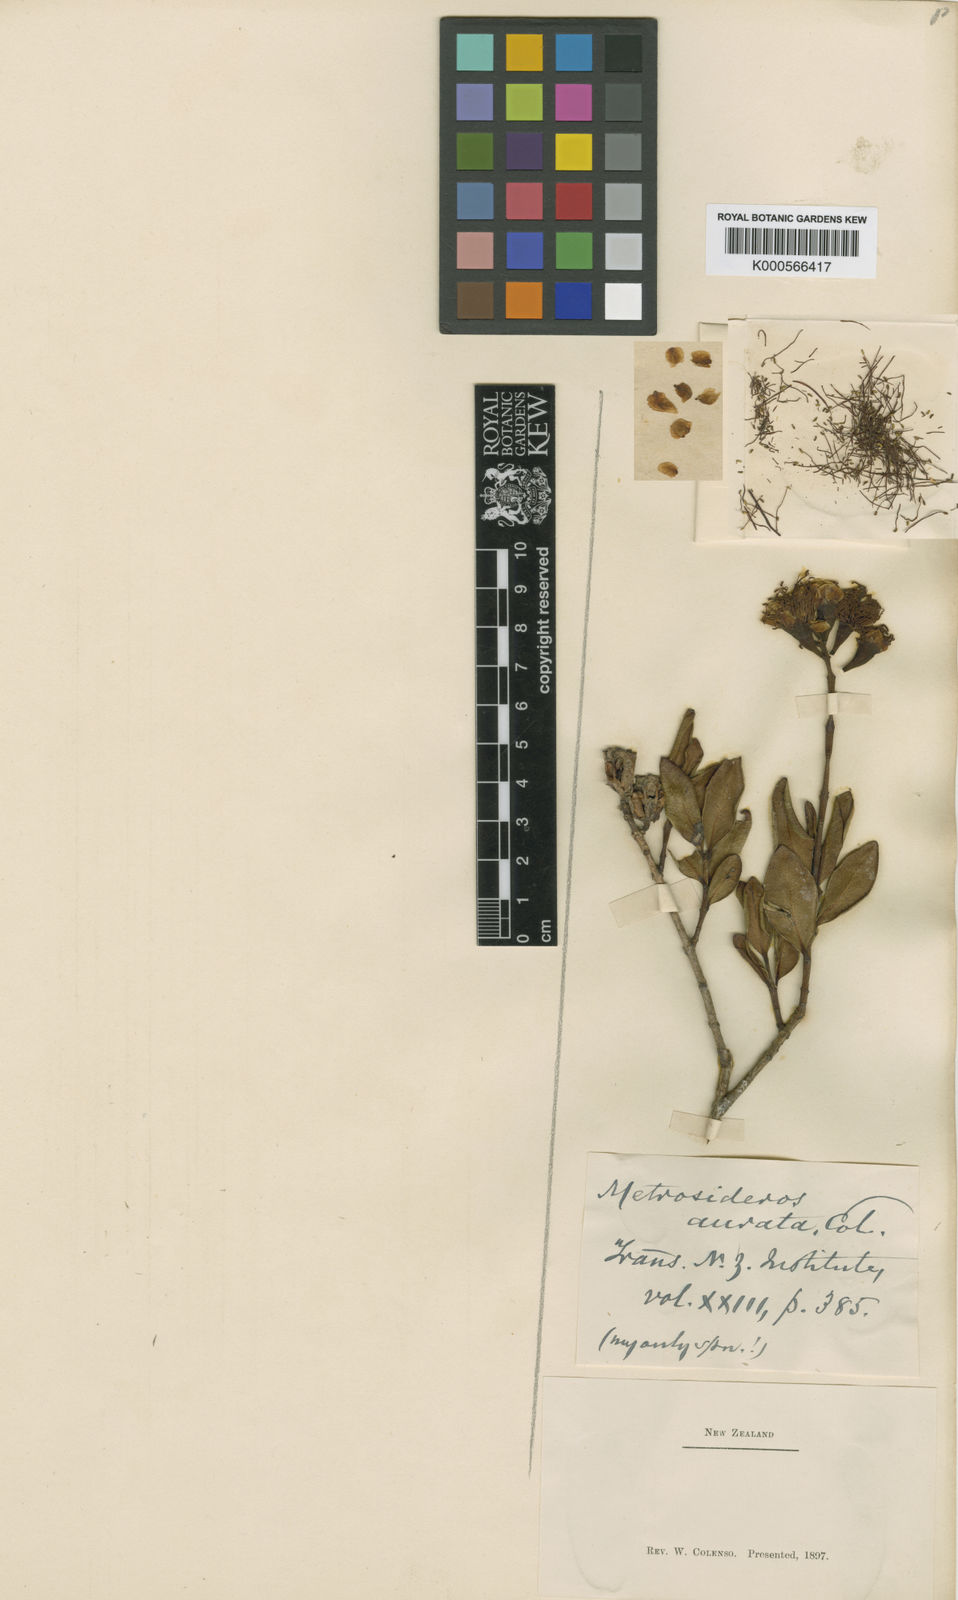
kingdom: Plantae
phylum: Tracheophyta
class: Magnoliopsida
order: Myrtales
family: Myrtaceae
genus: Metrosideros
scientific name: Metrosideros fulgens
